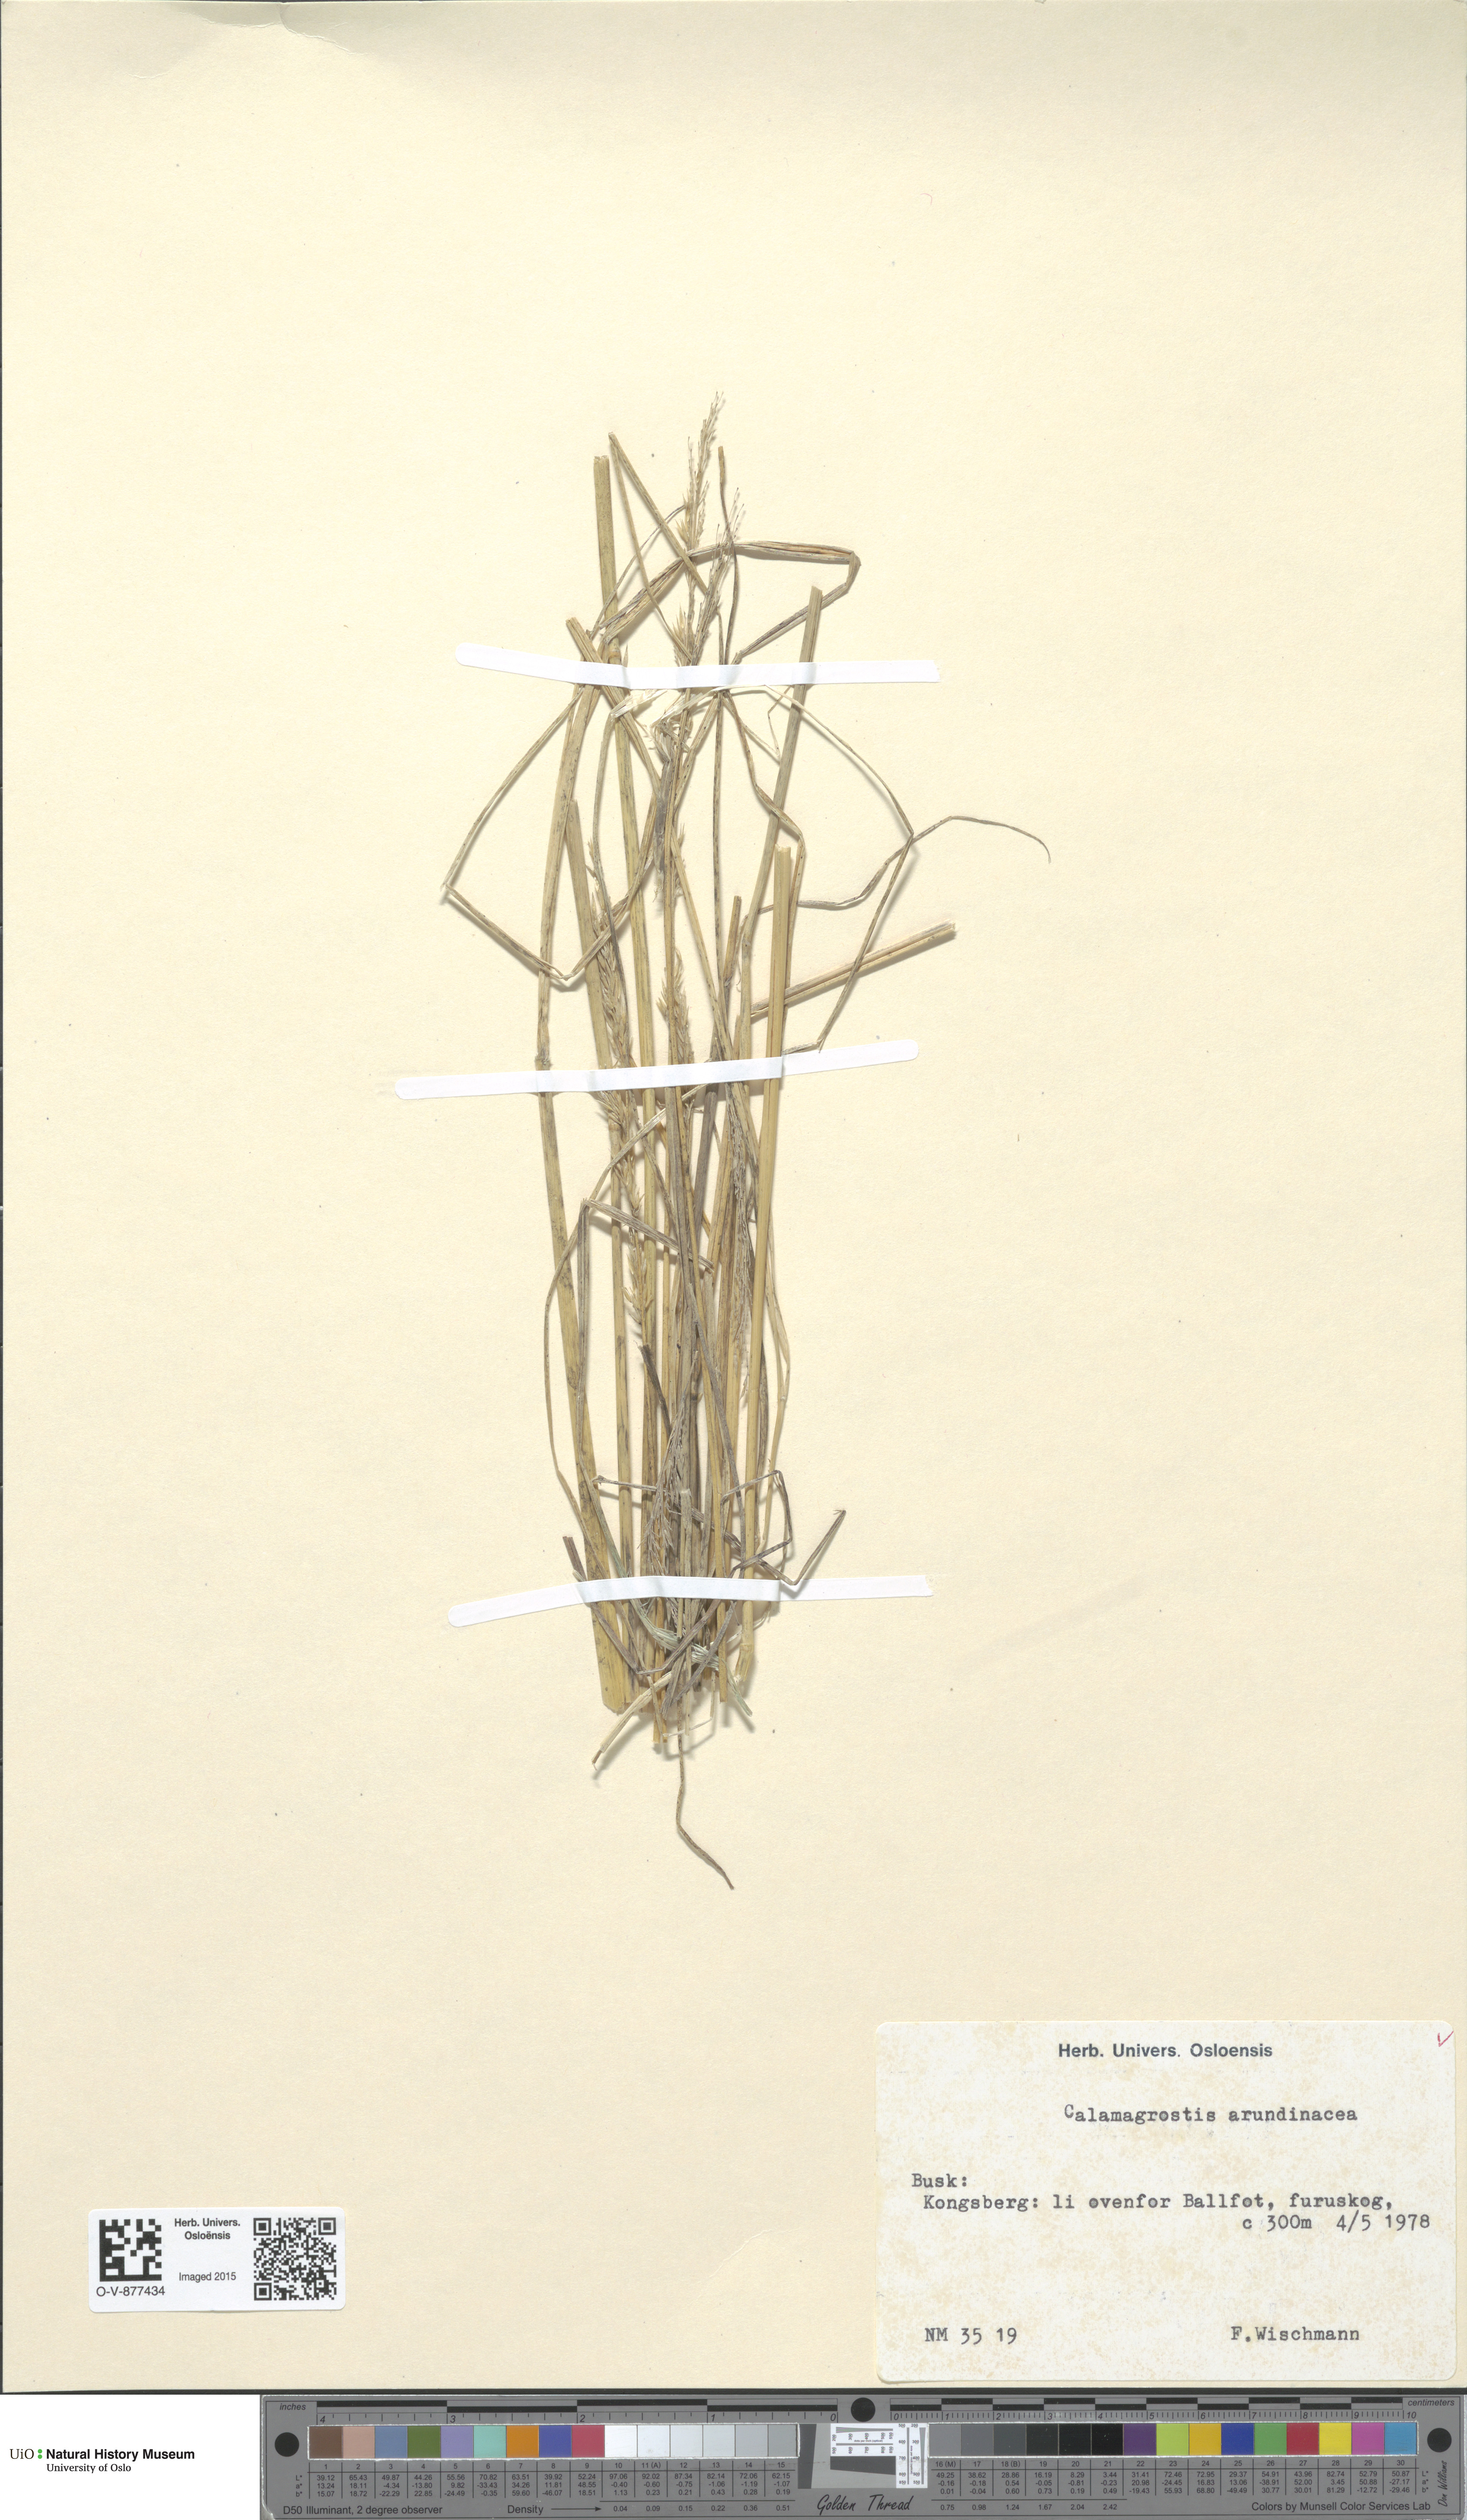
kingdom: Plantae
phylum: Tracheophyta
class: Liliopsida
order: Poales
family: Poaceae
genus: Calamagrostis
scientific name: Calamagrostis arundinacea
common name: Metskastik
